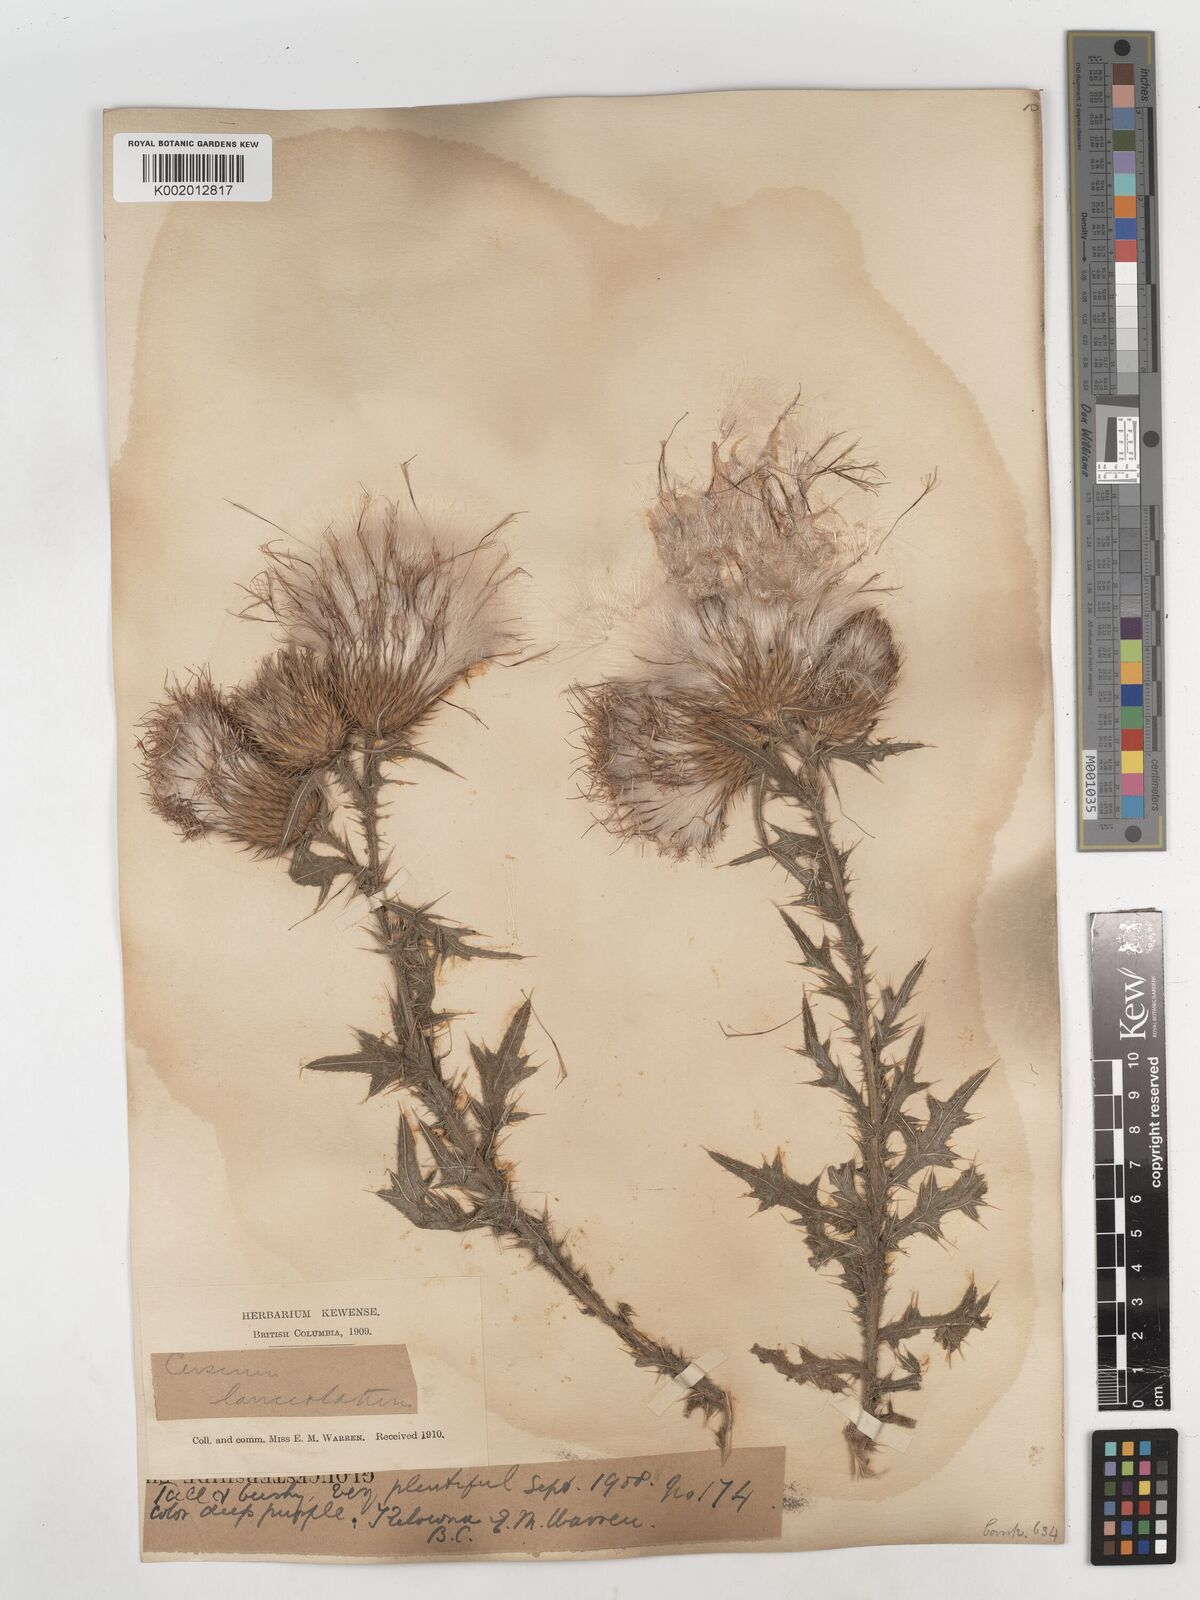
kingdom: Plantae
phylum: Tracheophyta
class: Magnoliopsida
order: Asterales
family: Asteraceae
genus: Cirsium
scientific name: Cirsium vulgare
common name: Bull thistle
